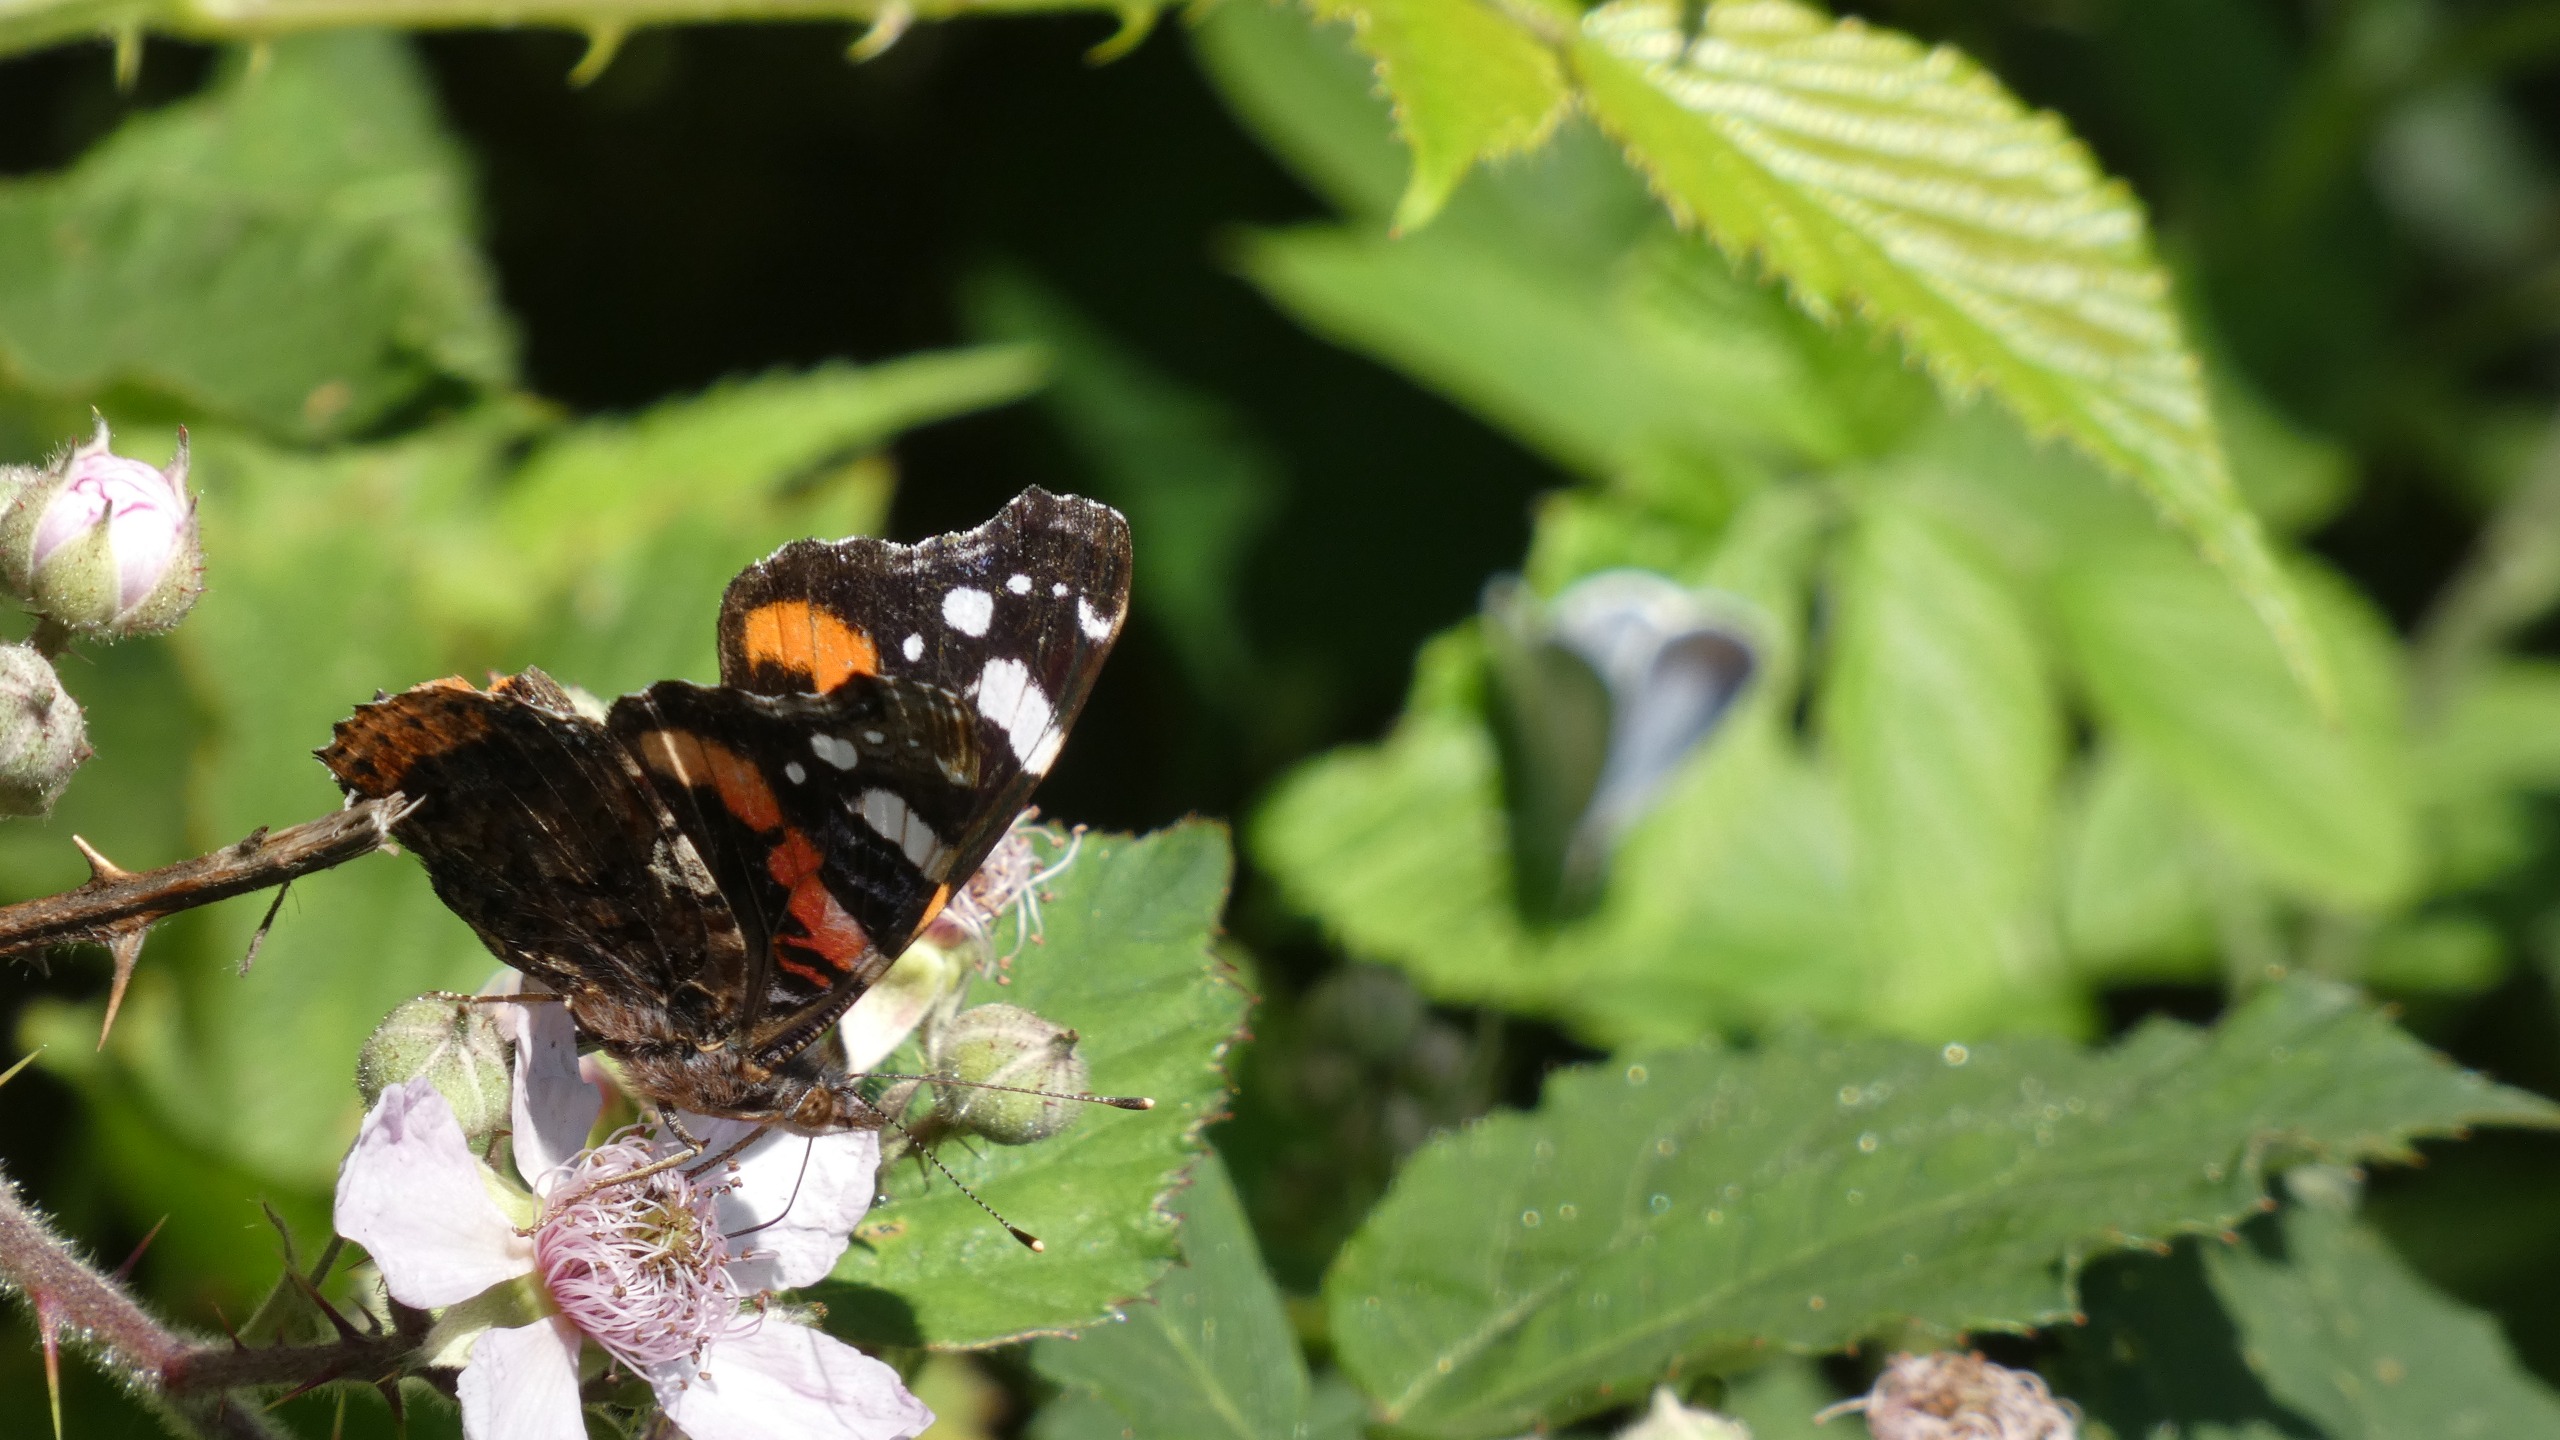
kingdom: Animalia
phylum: Arthropoda
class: Insecta
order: Lepidoptera
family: Nymphalidae
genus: Vanessa
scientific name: Vanessa atalanta
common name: Admiral
